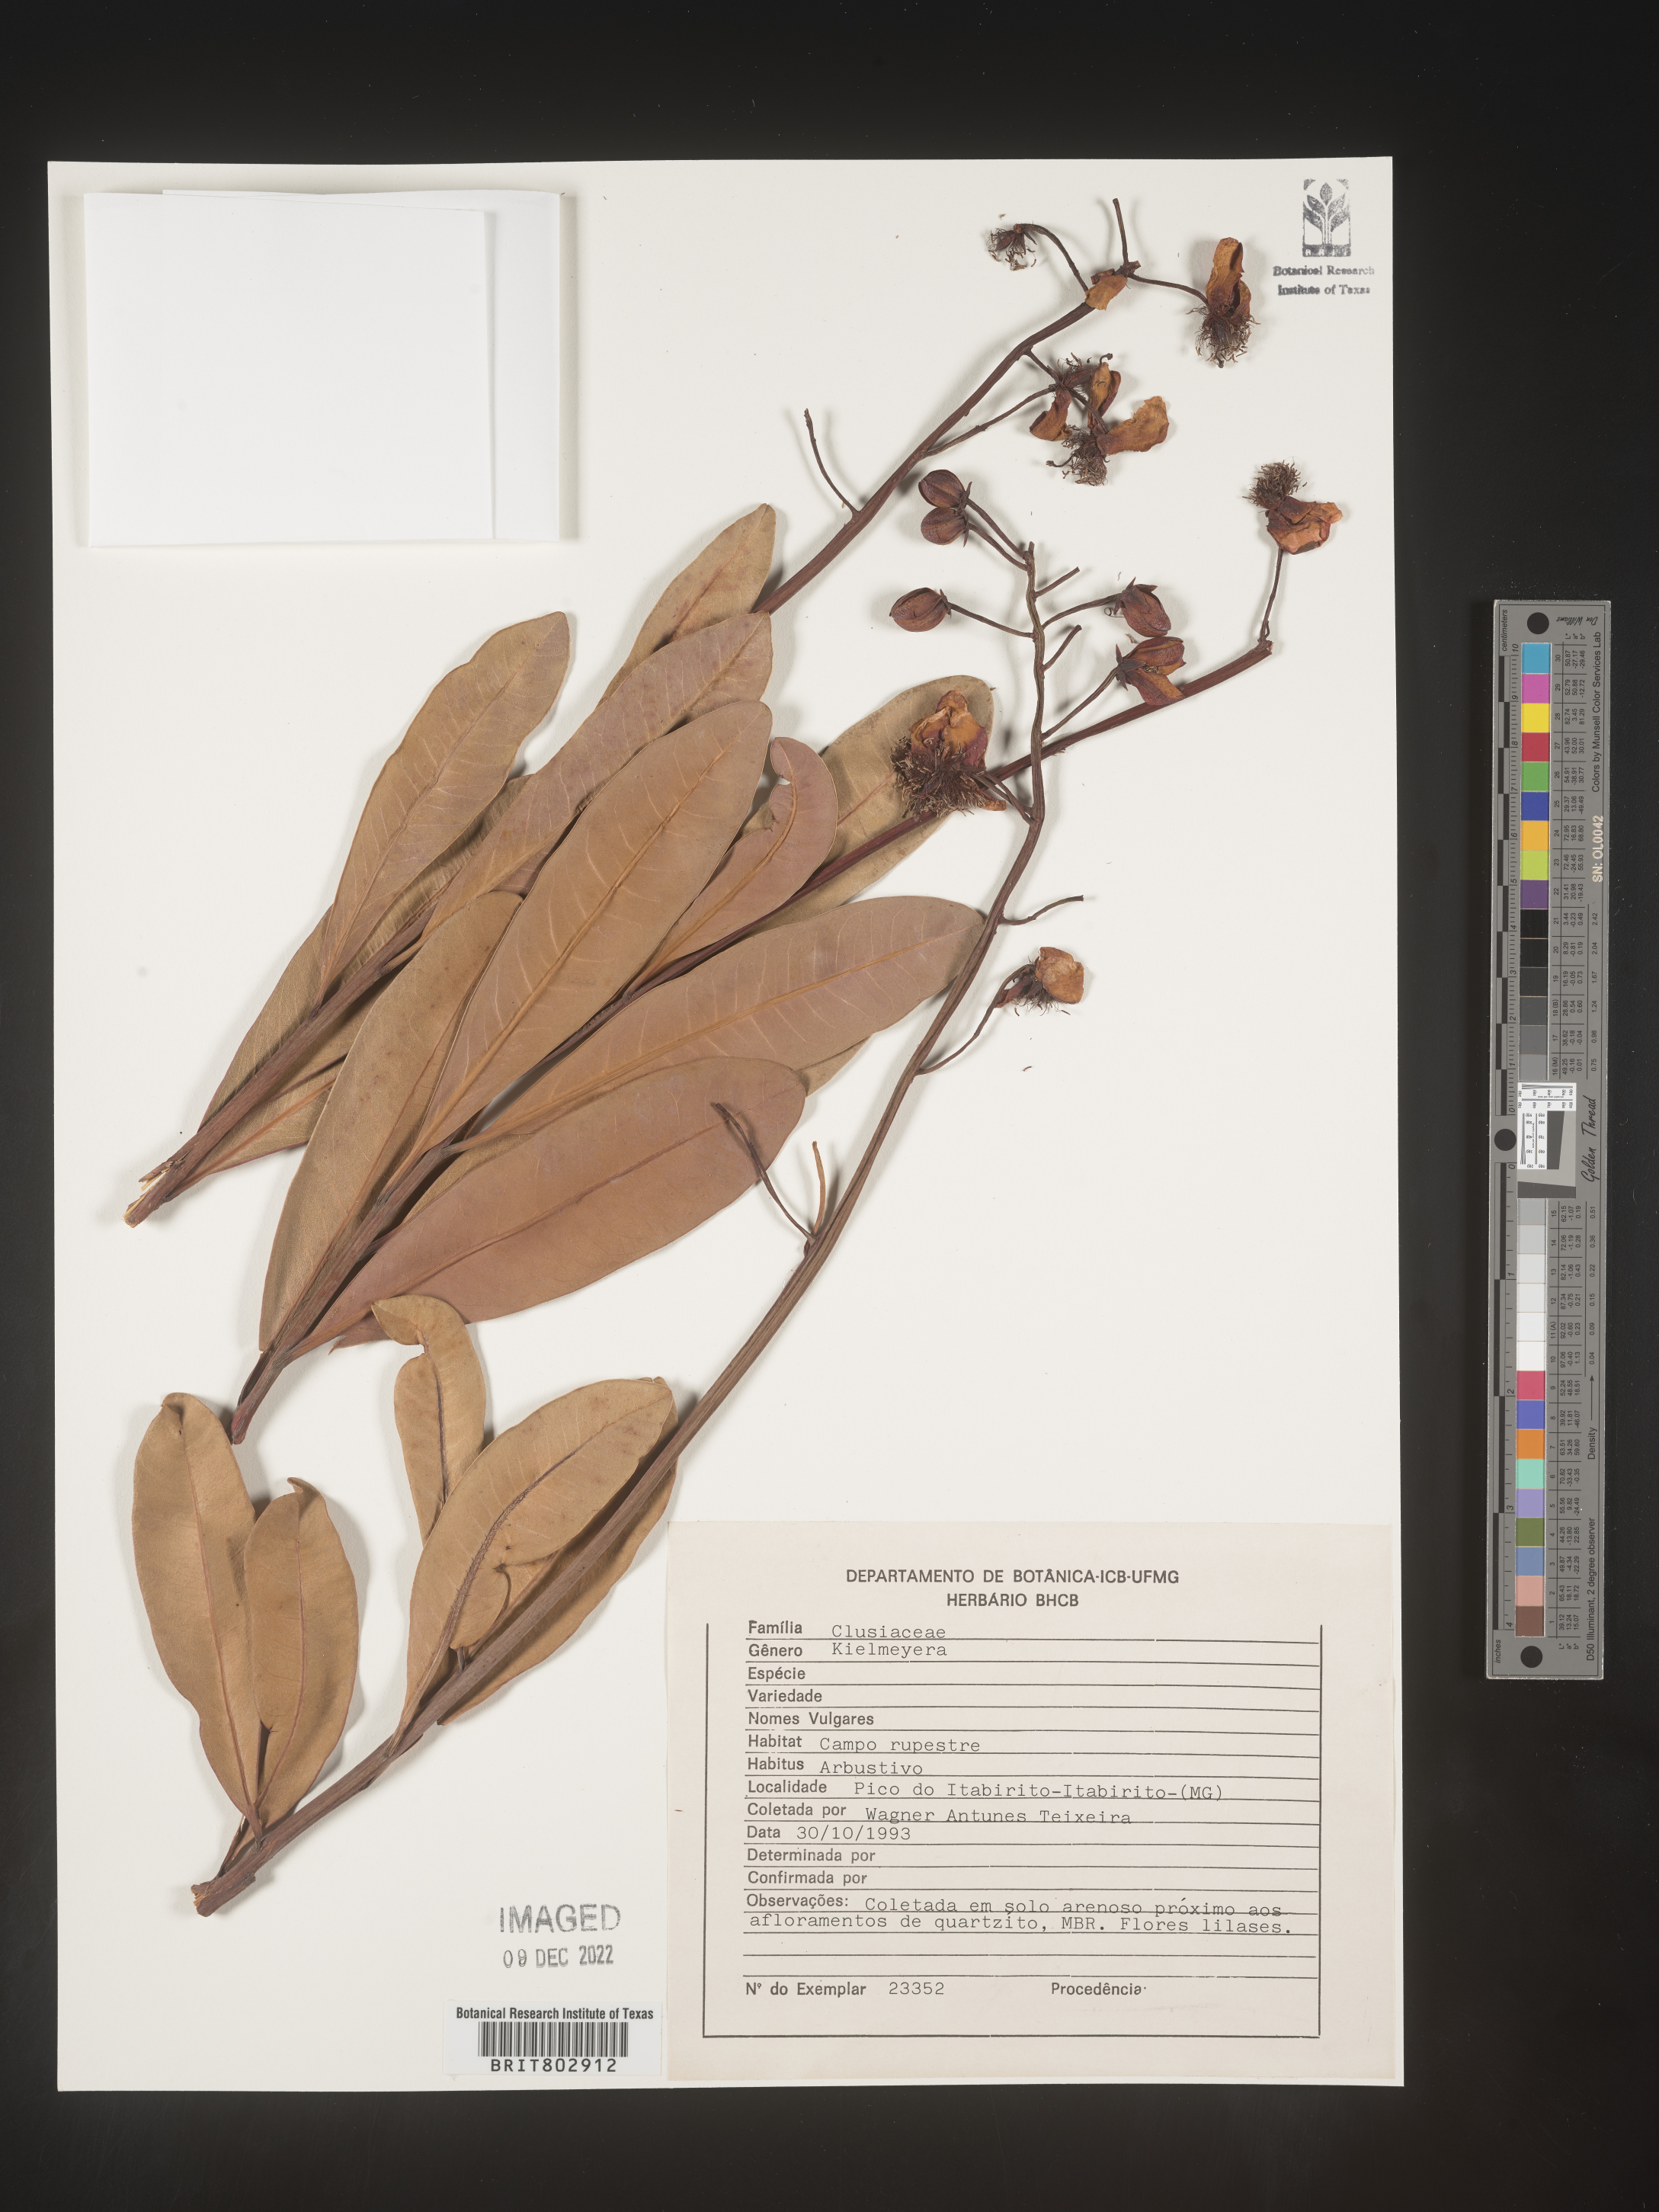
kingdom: Plantae
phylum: Tracheophyta
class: Magnoliopsida
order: Malpighiales
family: Calophyllaceae
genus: Kielmeyera
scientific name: Kielmeyera
